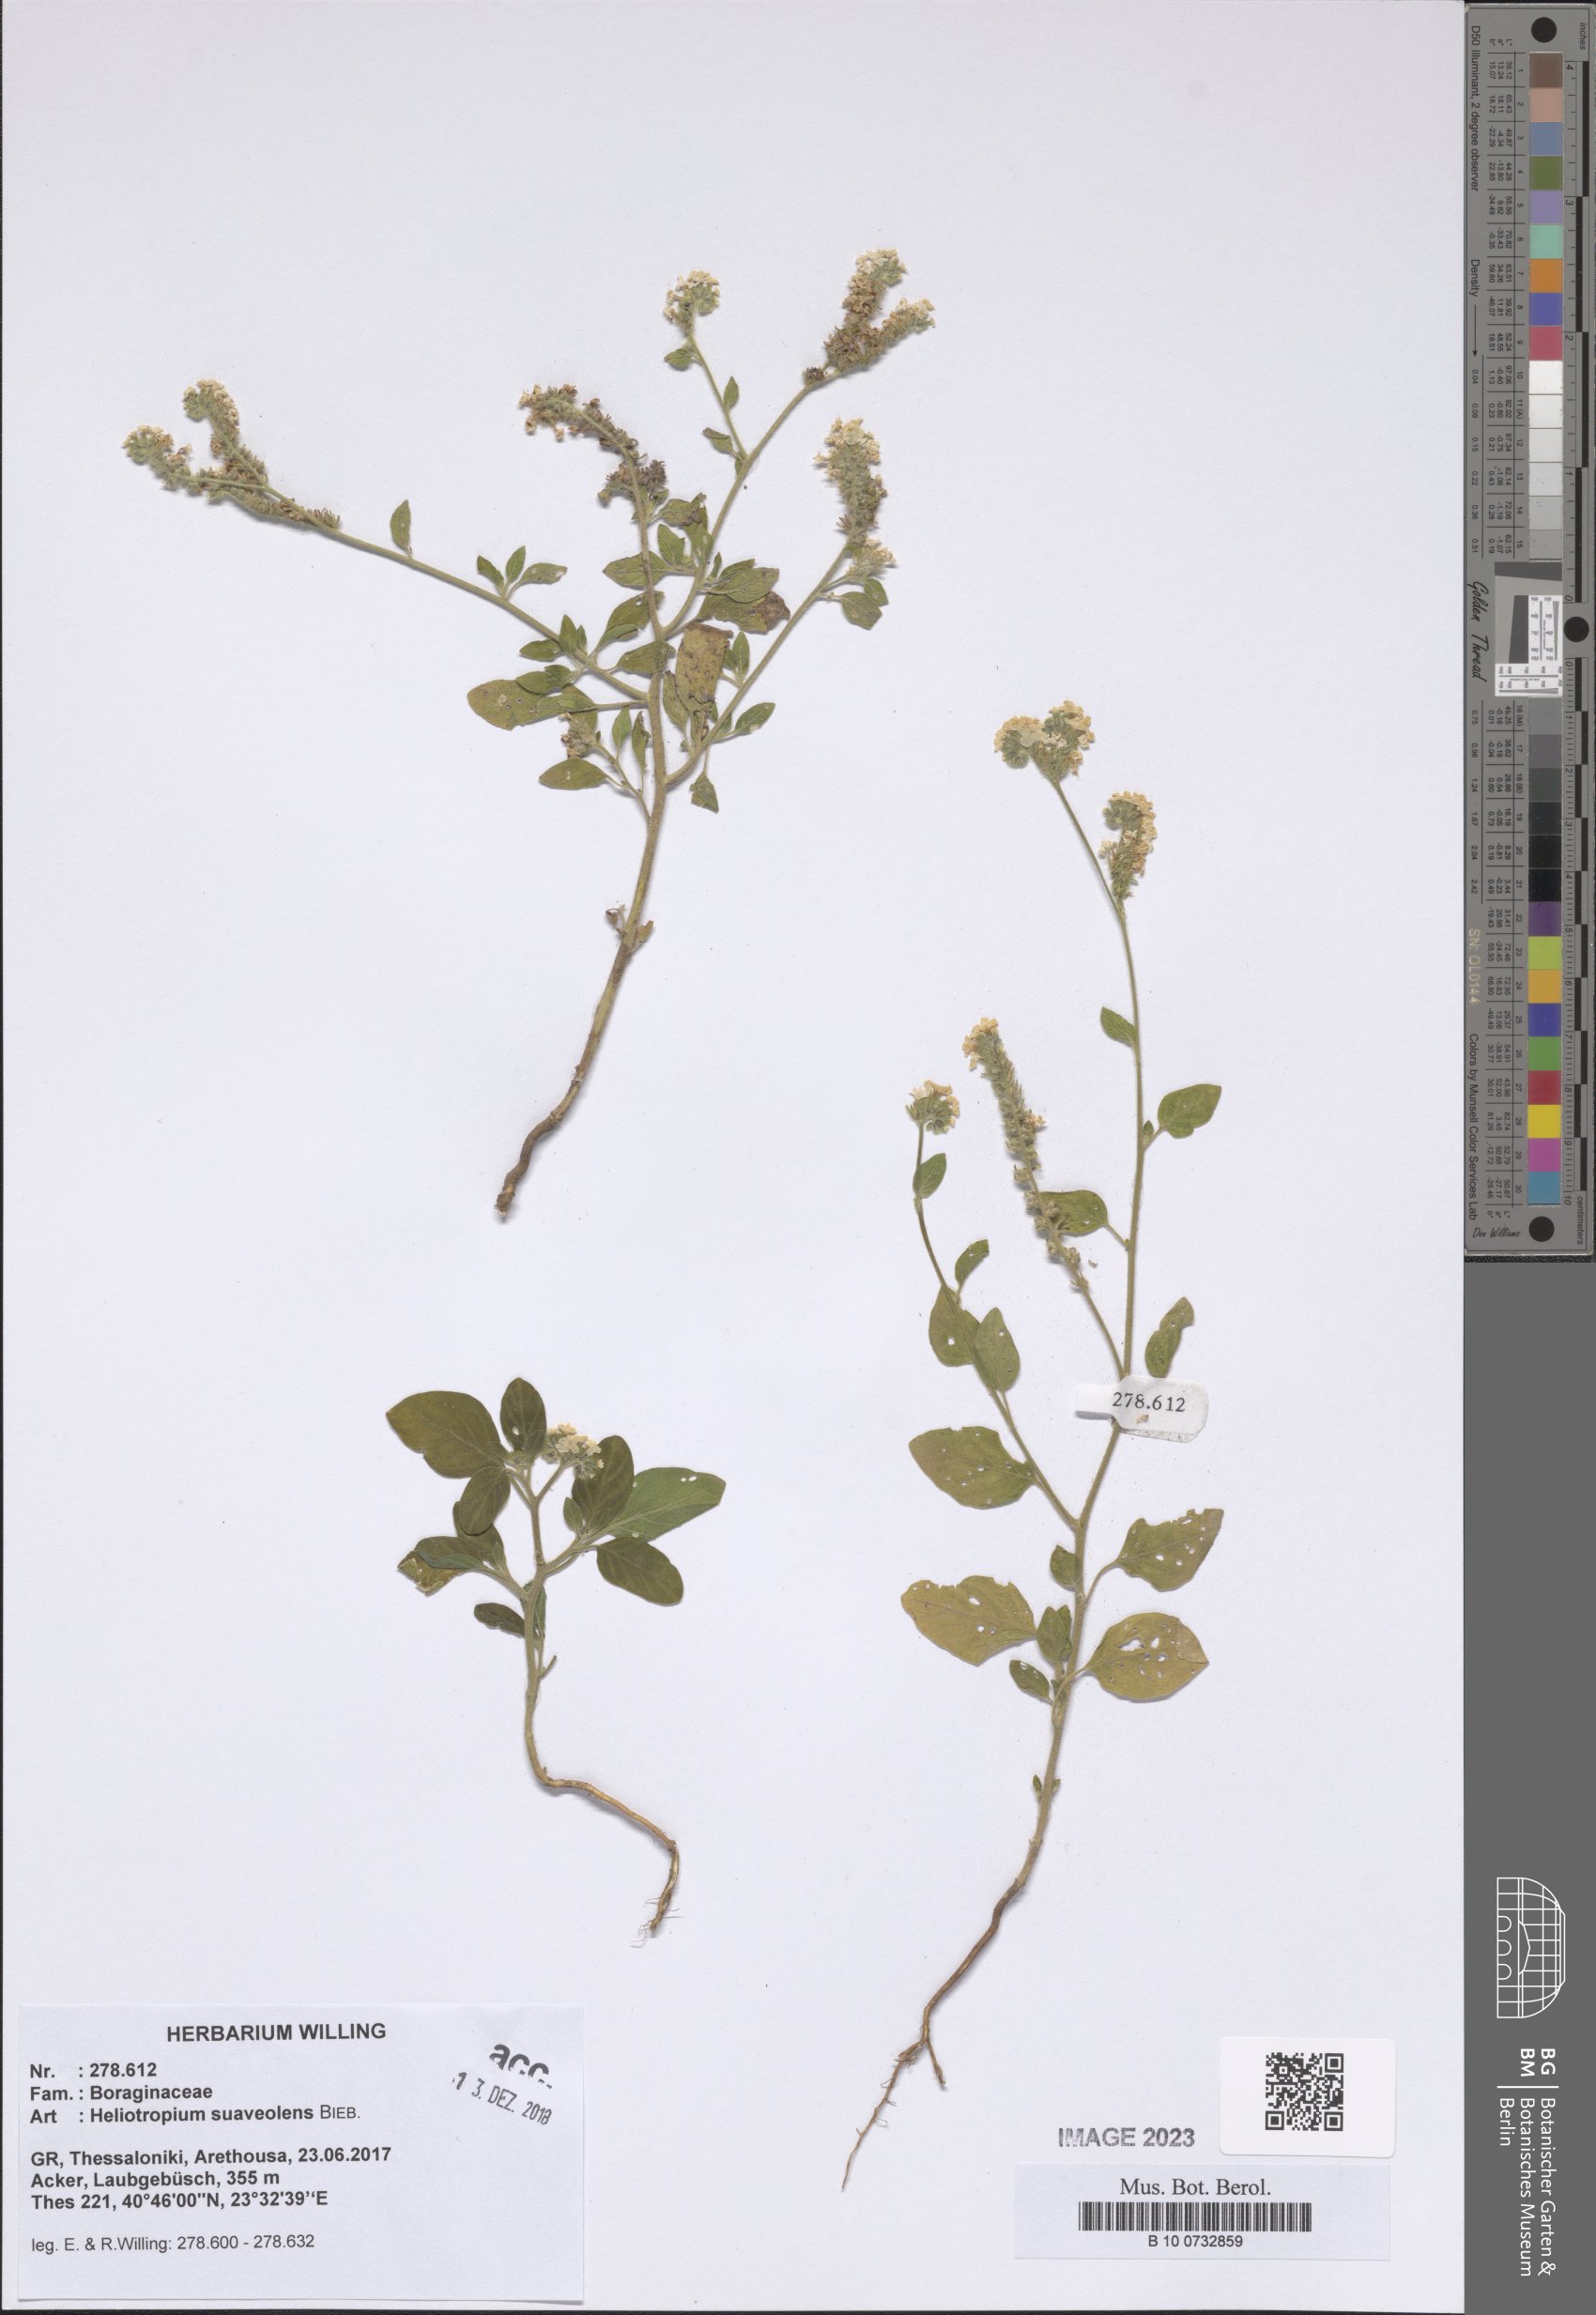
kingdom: Plantae
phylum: Tracheophyta
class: Magnoliopsida
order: Boraginales
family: Heliotropiaceae
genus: Heliotropium
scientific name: Heliotropium suaveolens
